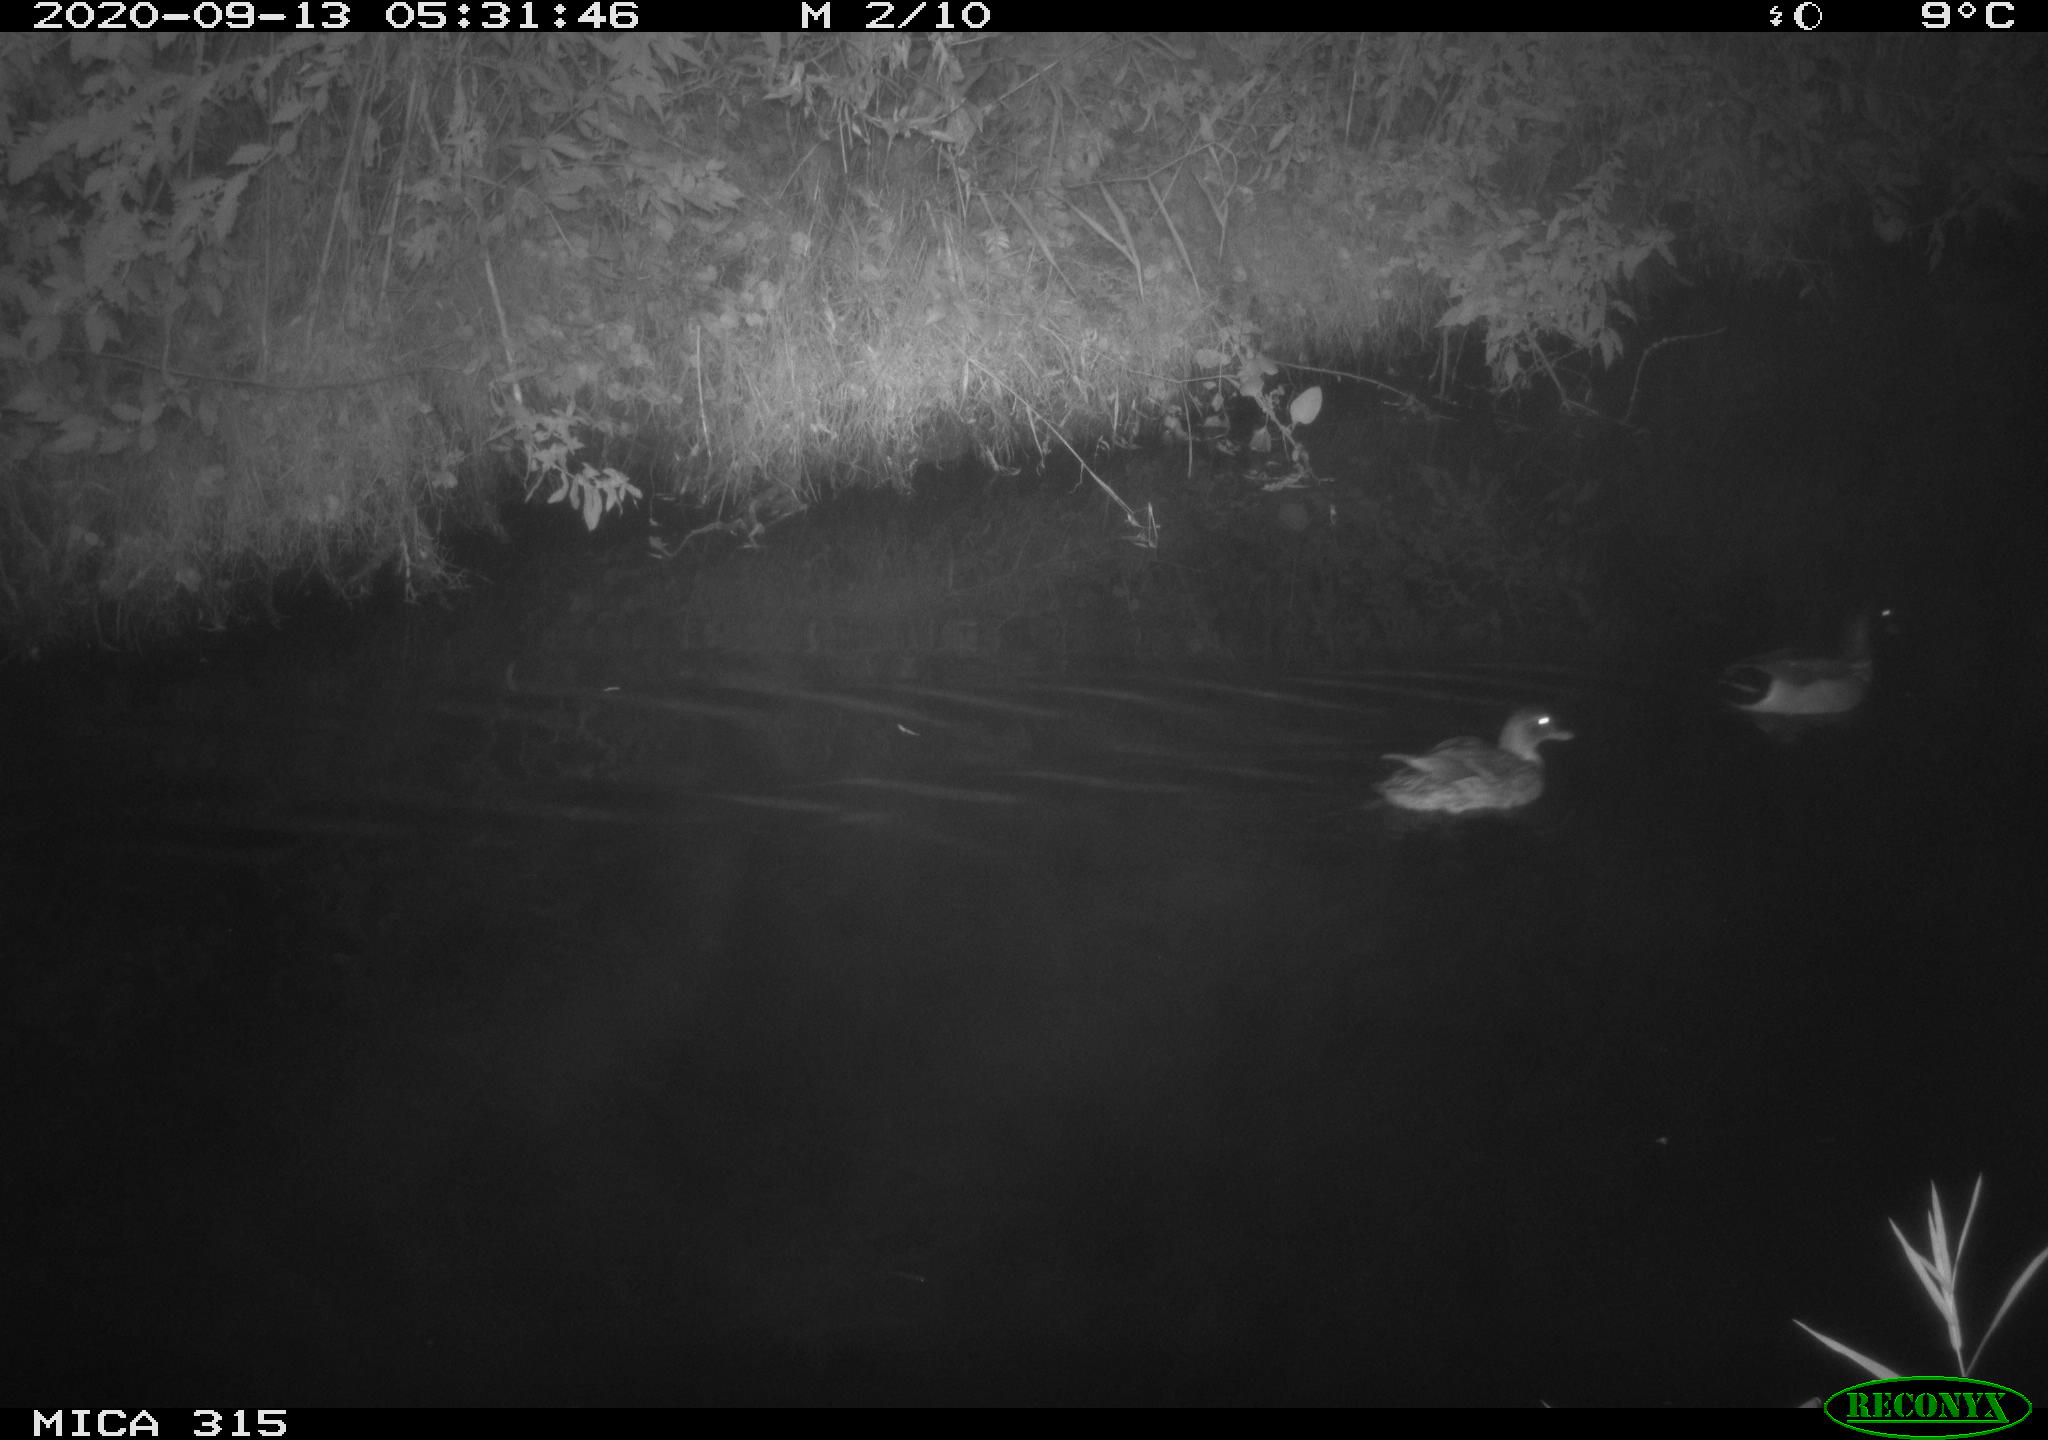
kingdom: Animalia
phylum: Chordata
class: Aves
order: Anseriformes
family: Anatidae
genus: Anas
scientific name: Anas platyrhynchos
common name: Mallard
